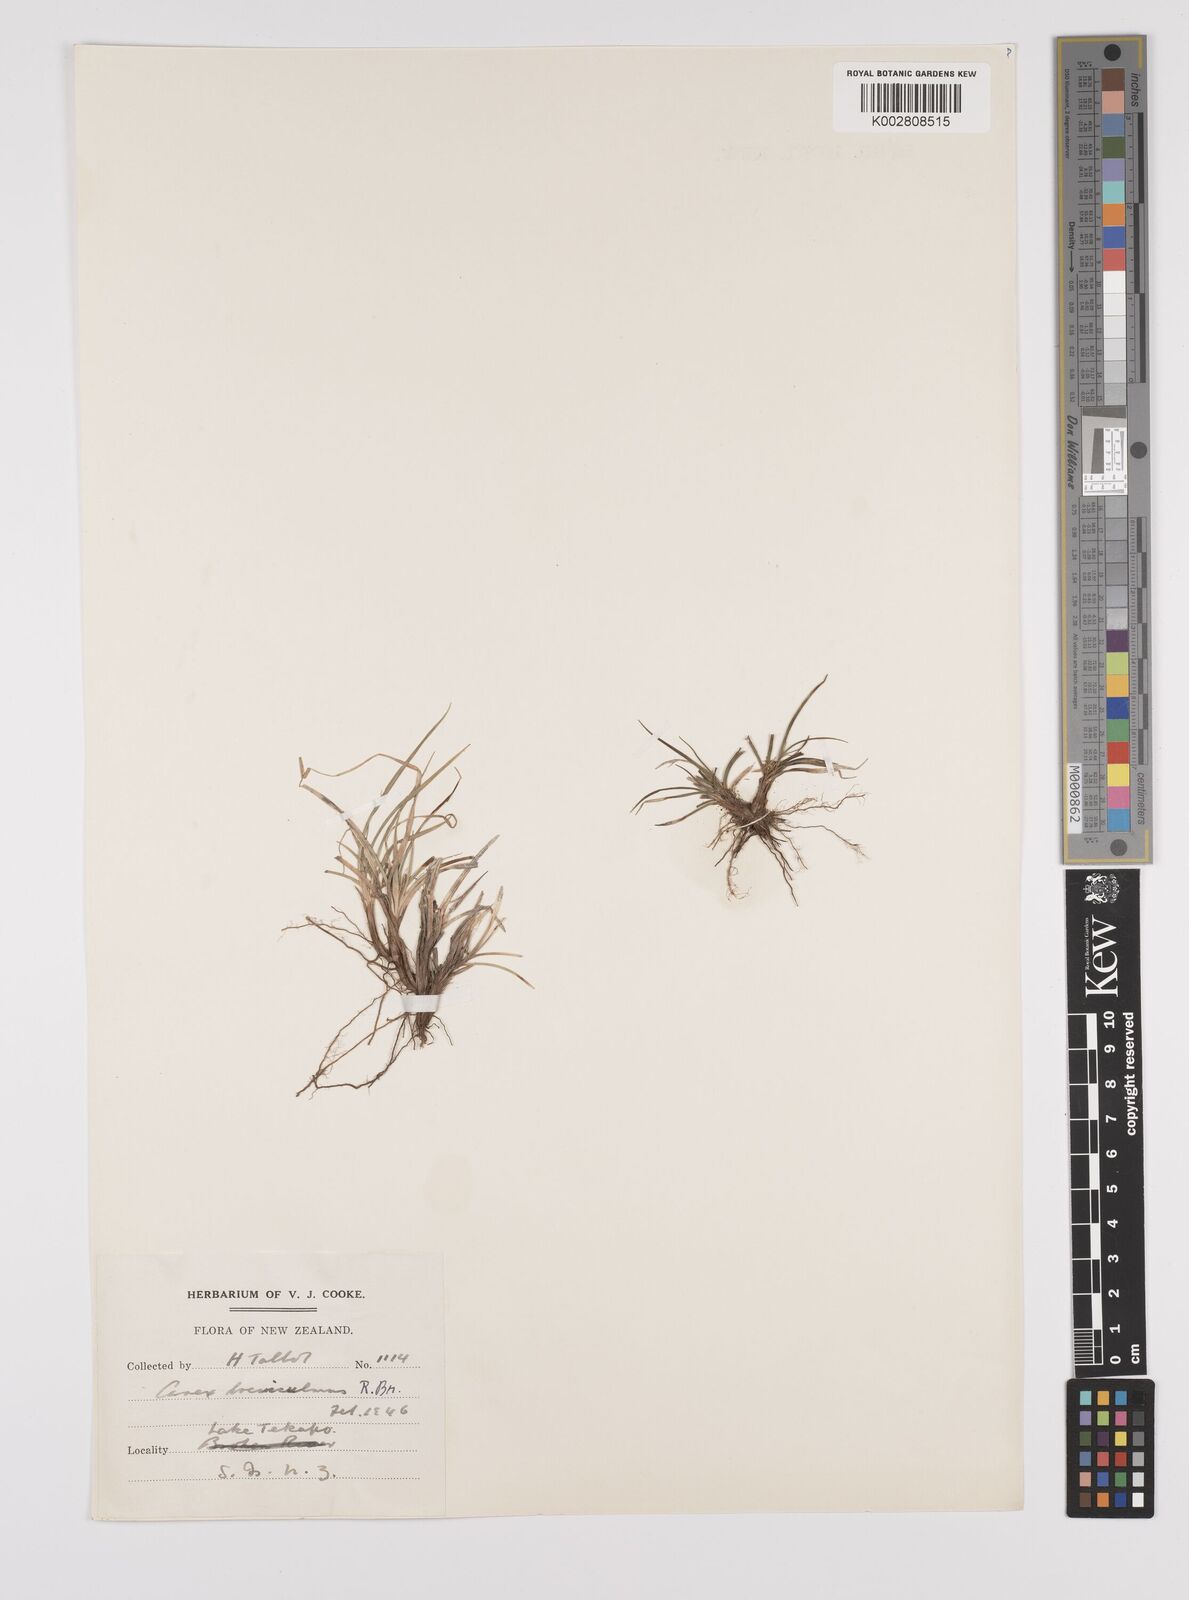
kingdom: Plantae
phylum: Tracheophyta
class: Liliopsida
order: Poales
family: Cyperaceae
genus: Carex
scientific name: Carex breviculmis
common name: Asian shortstem sedge
